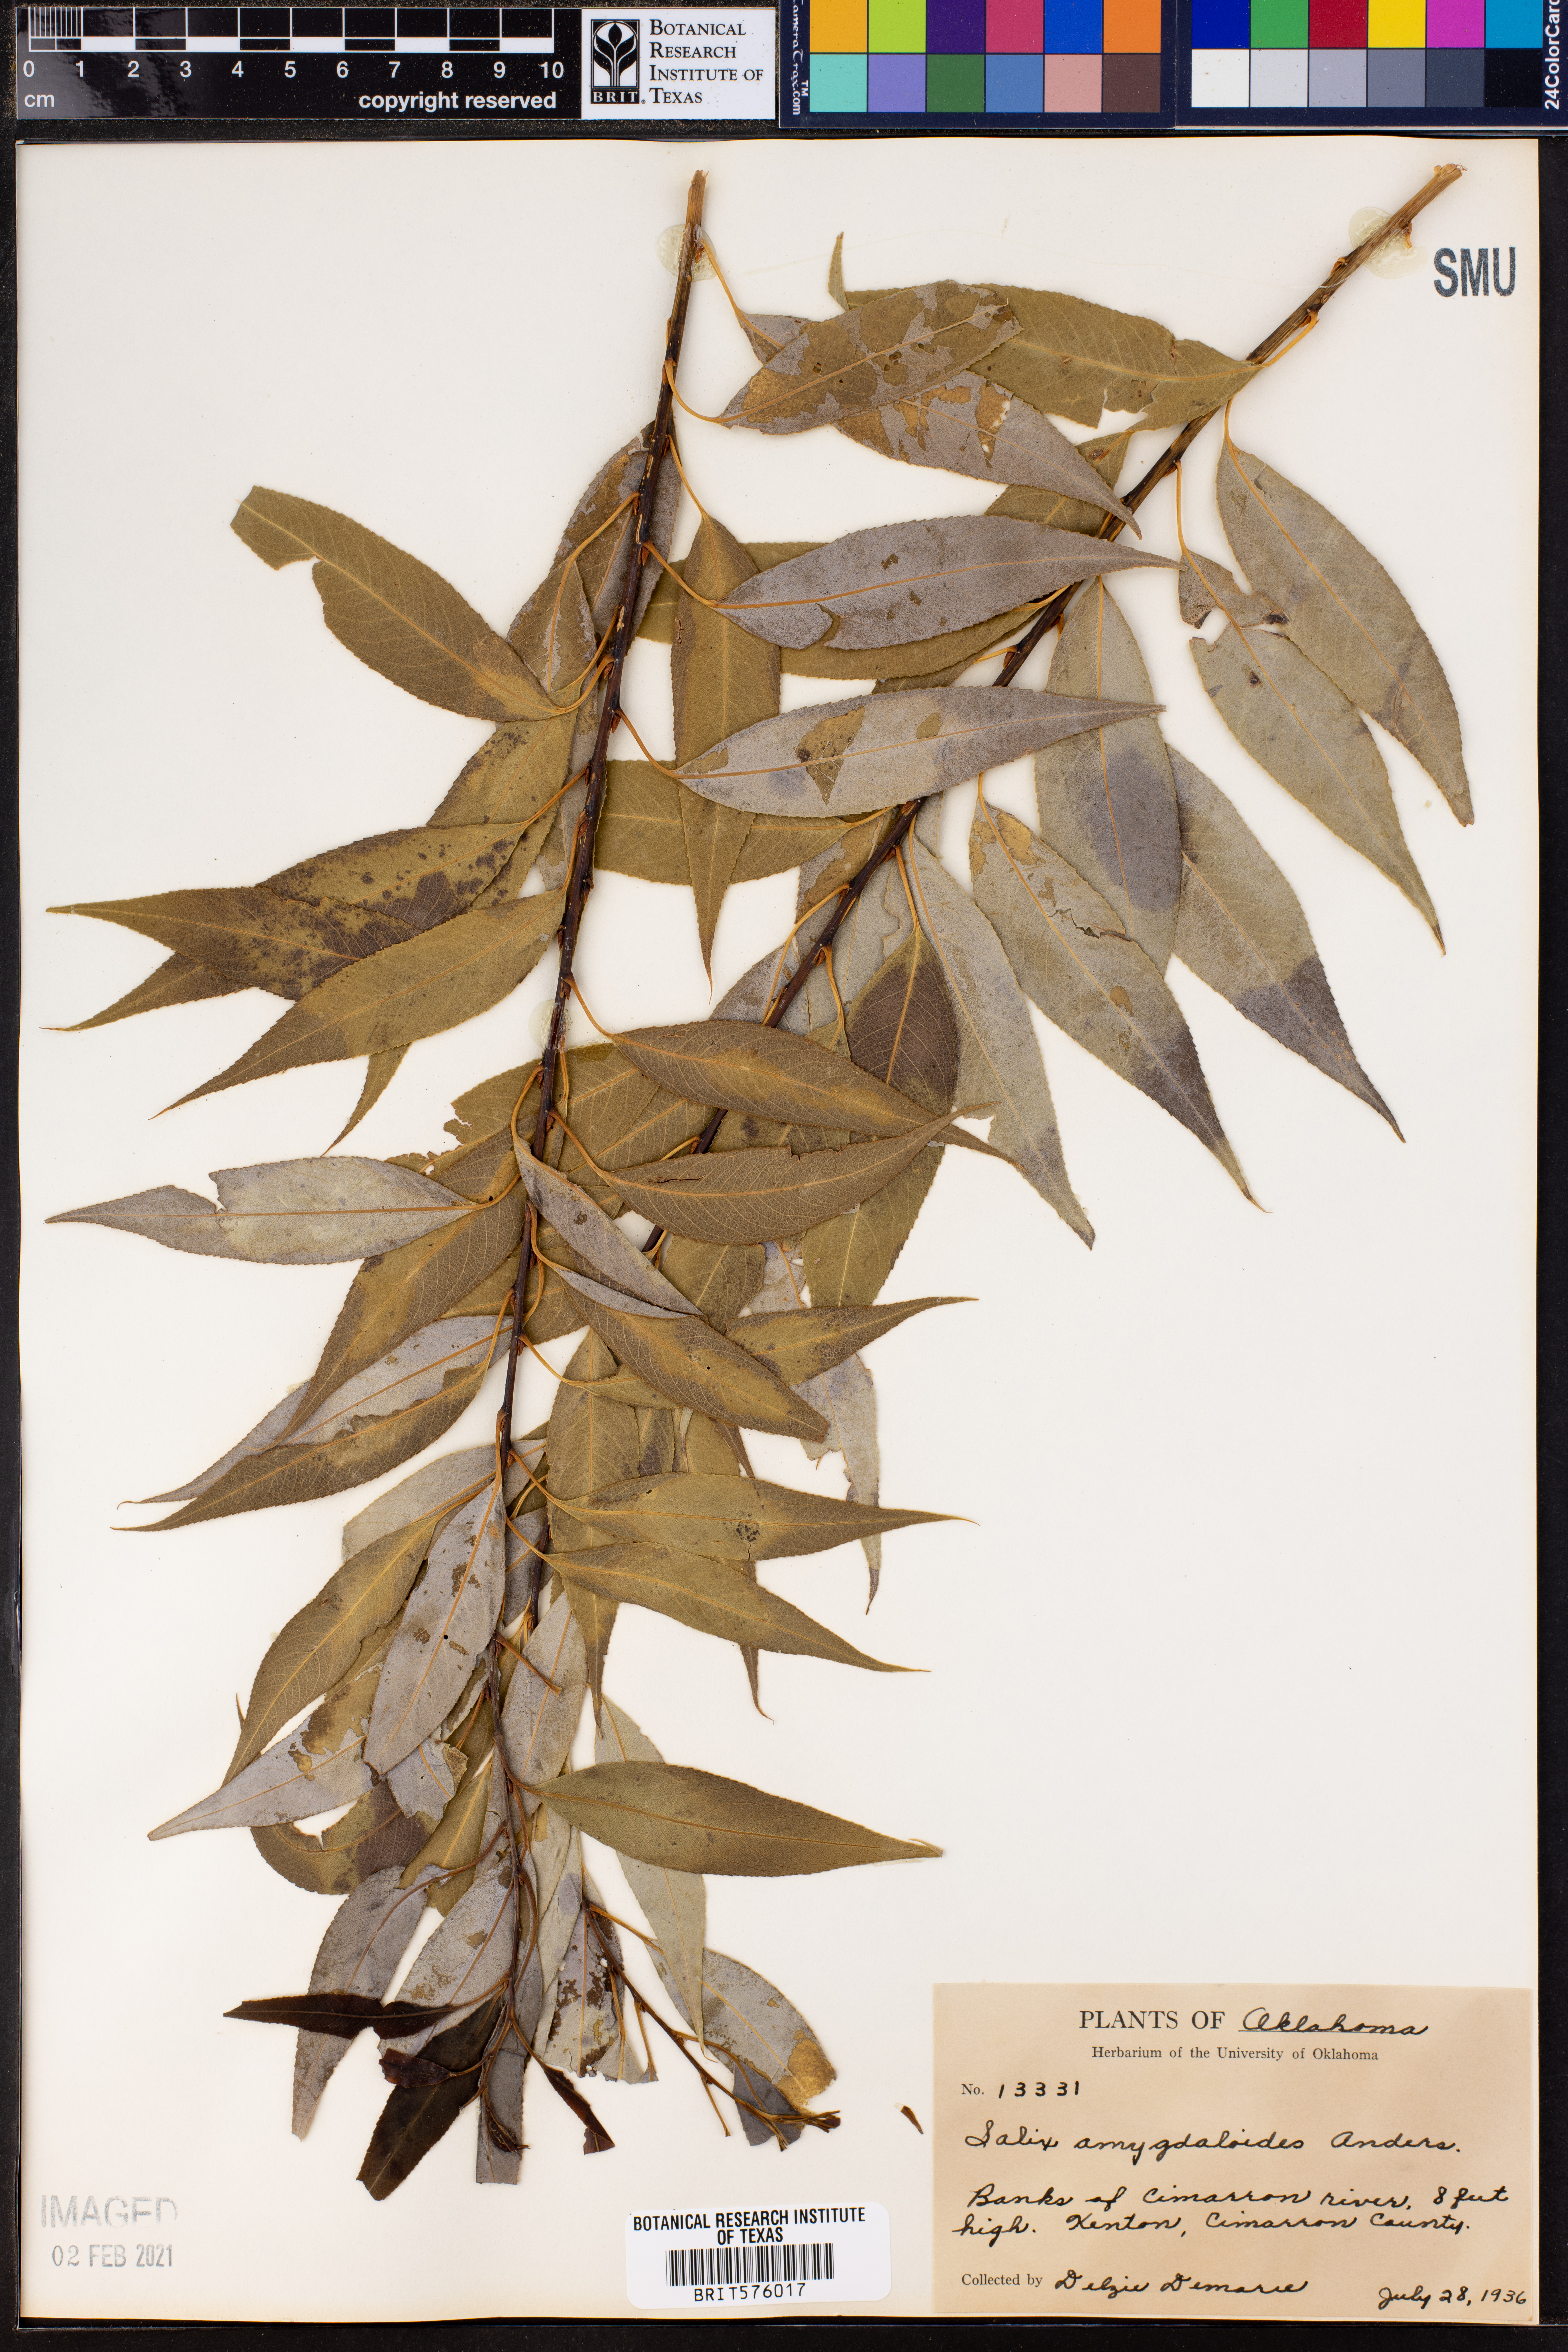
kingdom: Plantae
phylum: Tracheophyta
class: Magnoliopsida
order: Malpighiales
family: Salicaceae
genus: Salix
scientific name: Salix amygdaloides
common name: Peach leaf willow
